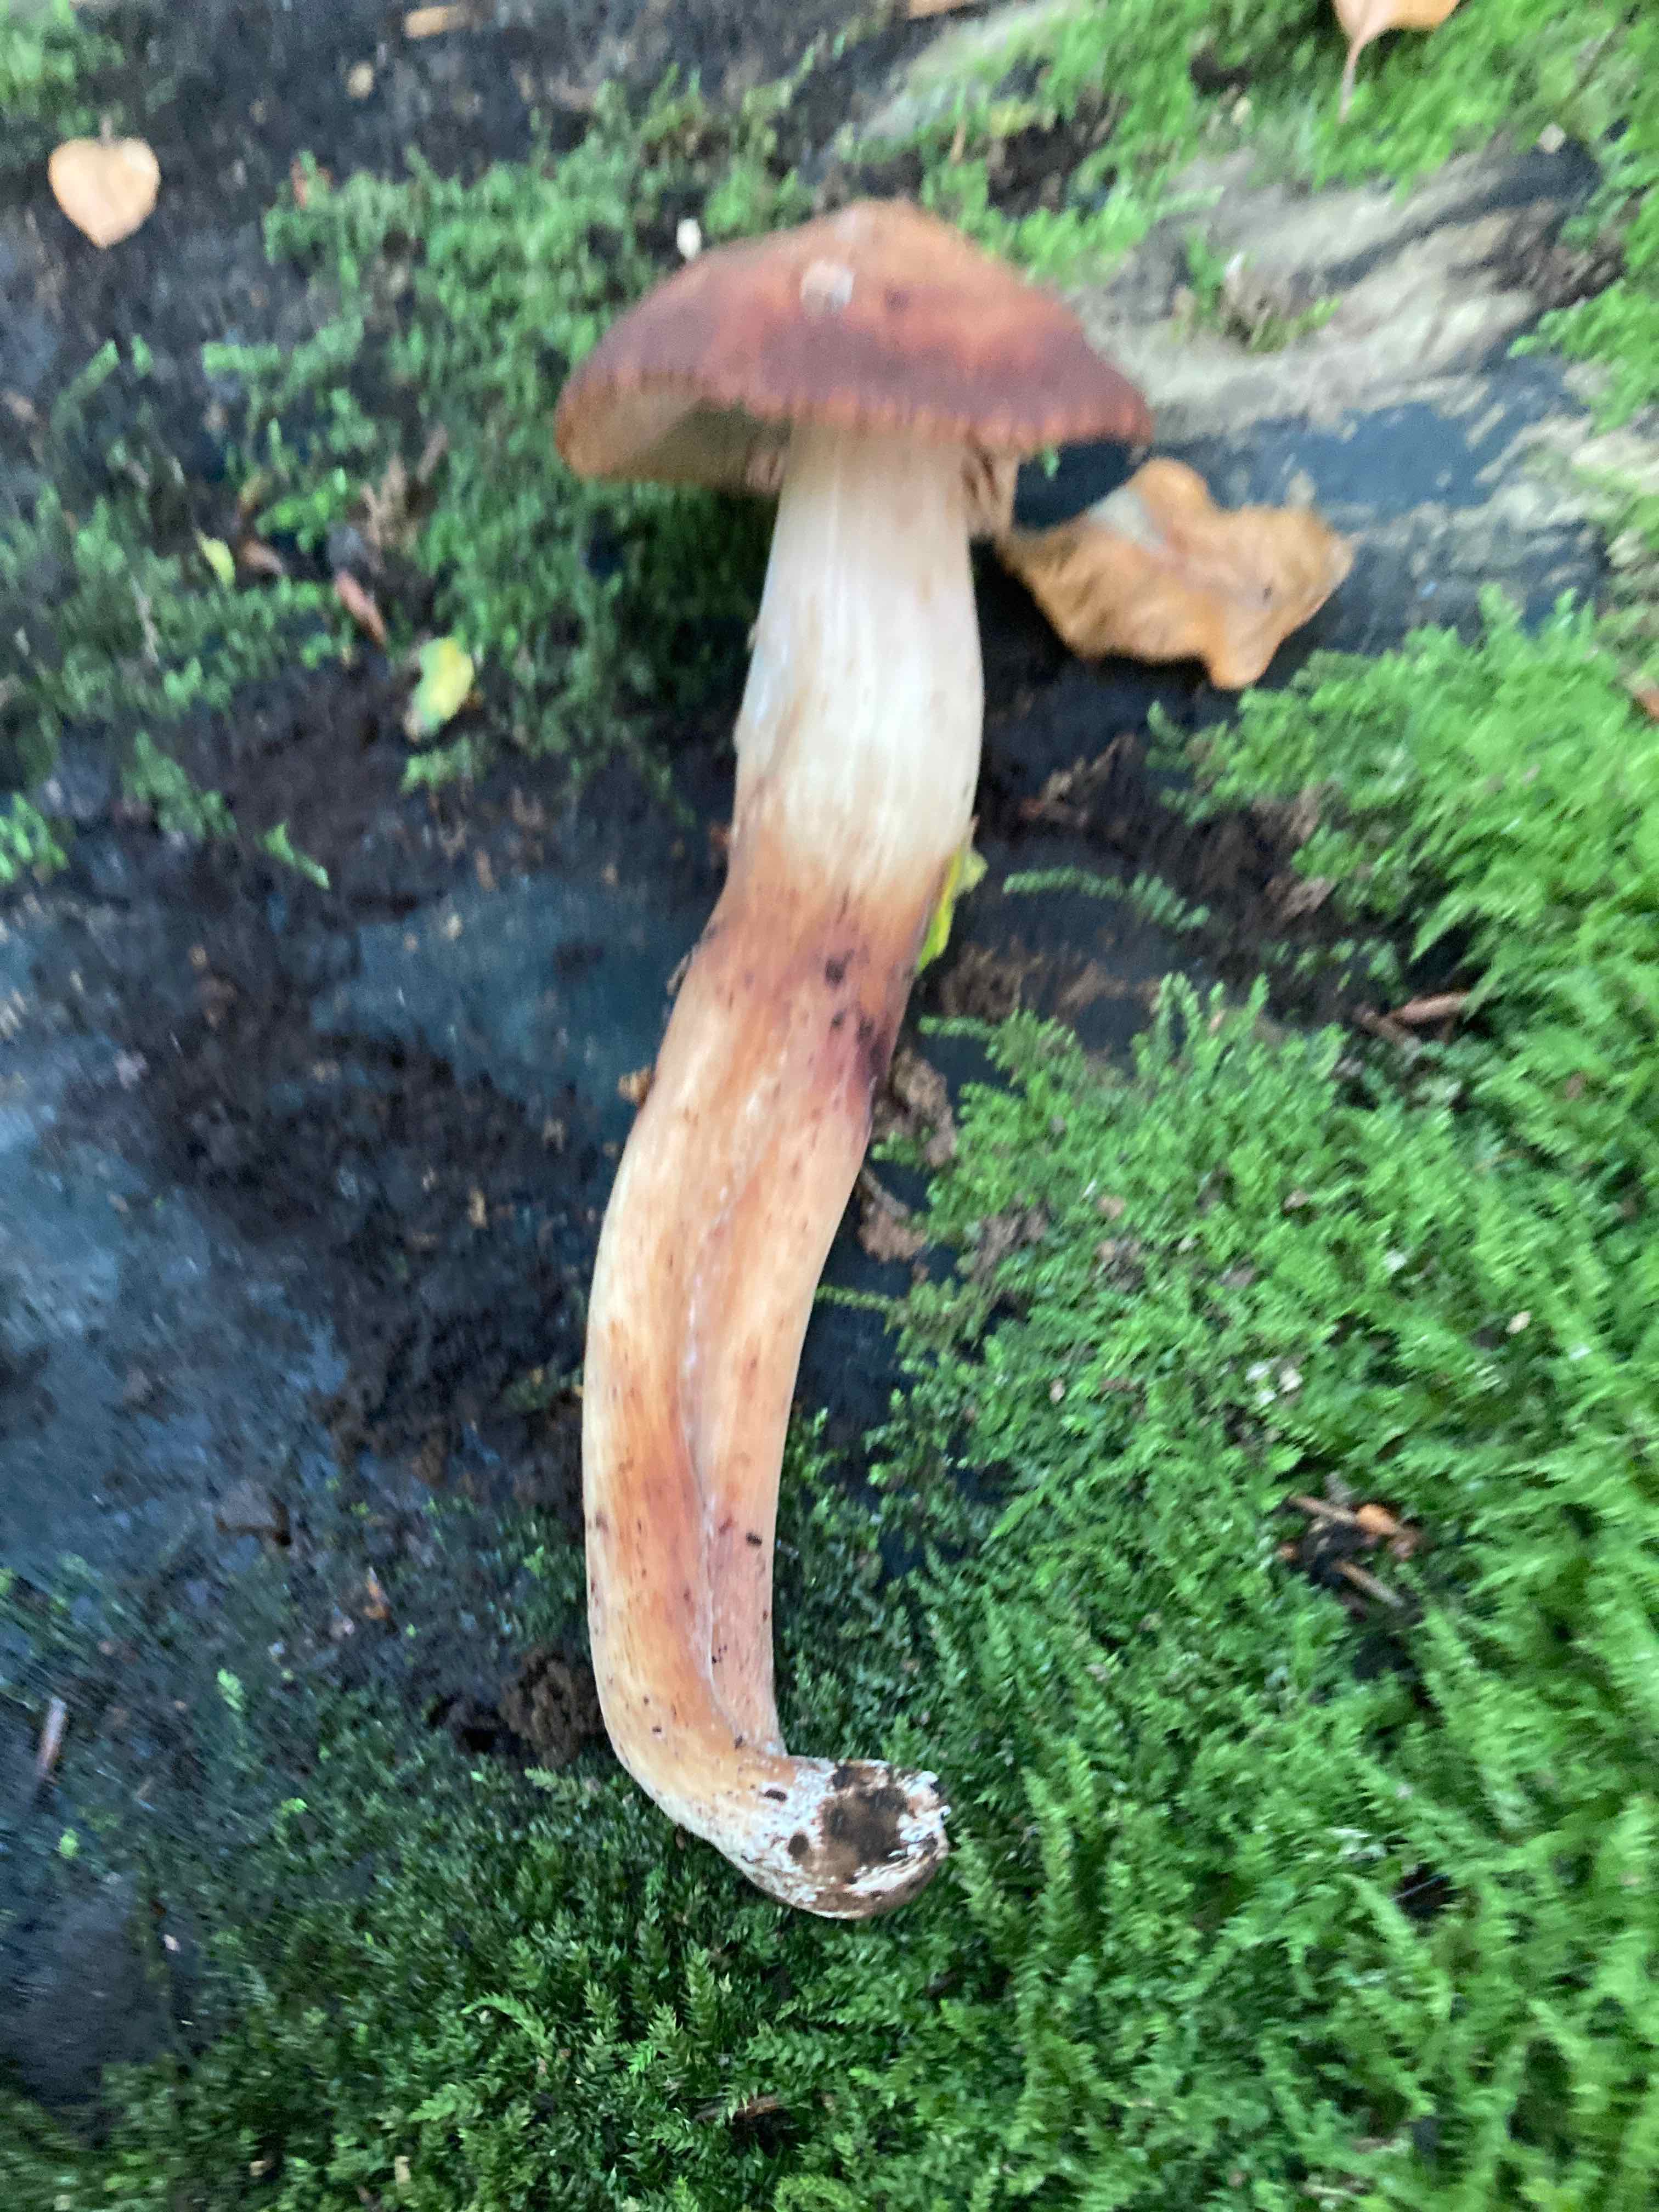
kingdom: Fungi
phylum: Basidiomycota
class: Agaricomycetes
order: Agaricales
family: Omphalotaceae
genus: Gymnopus
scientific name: Gymnopus fusipes
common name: tenstokket fladhat
